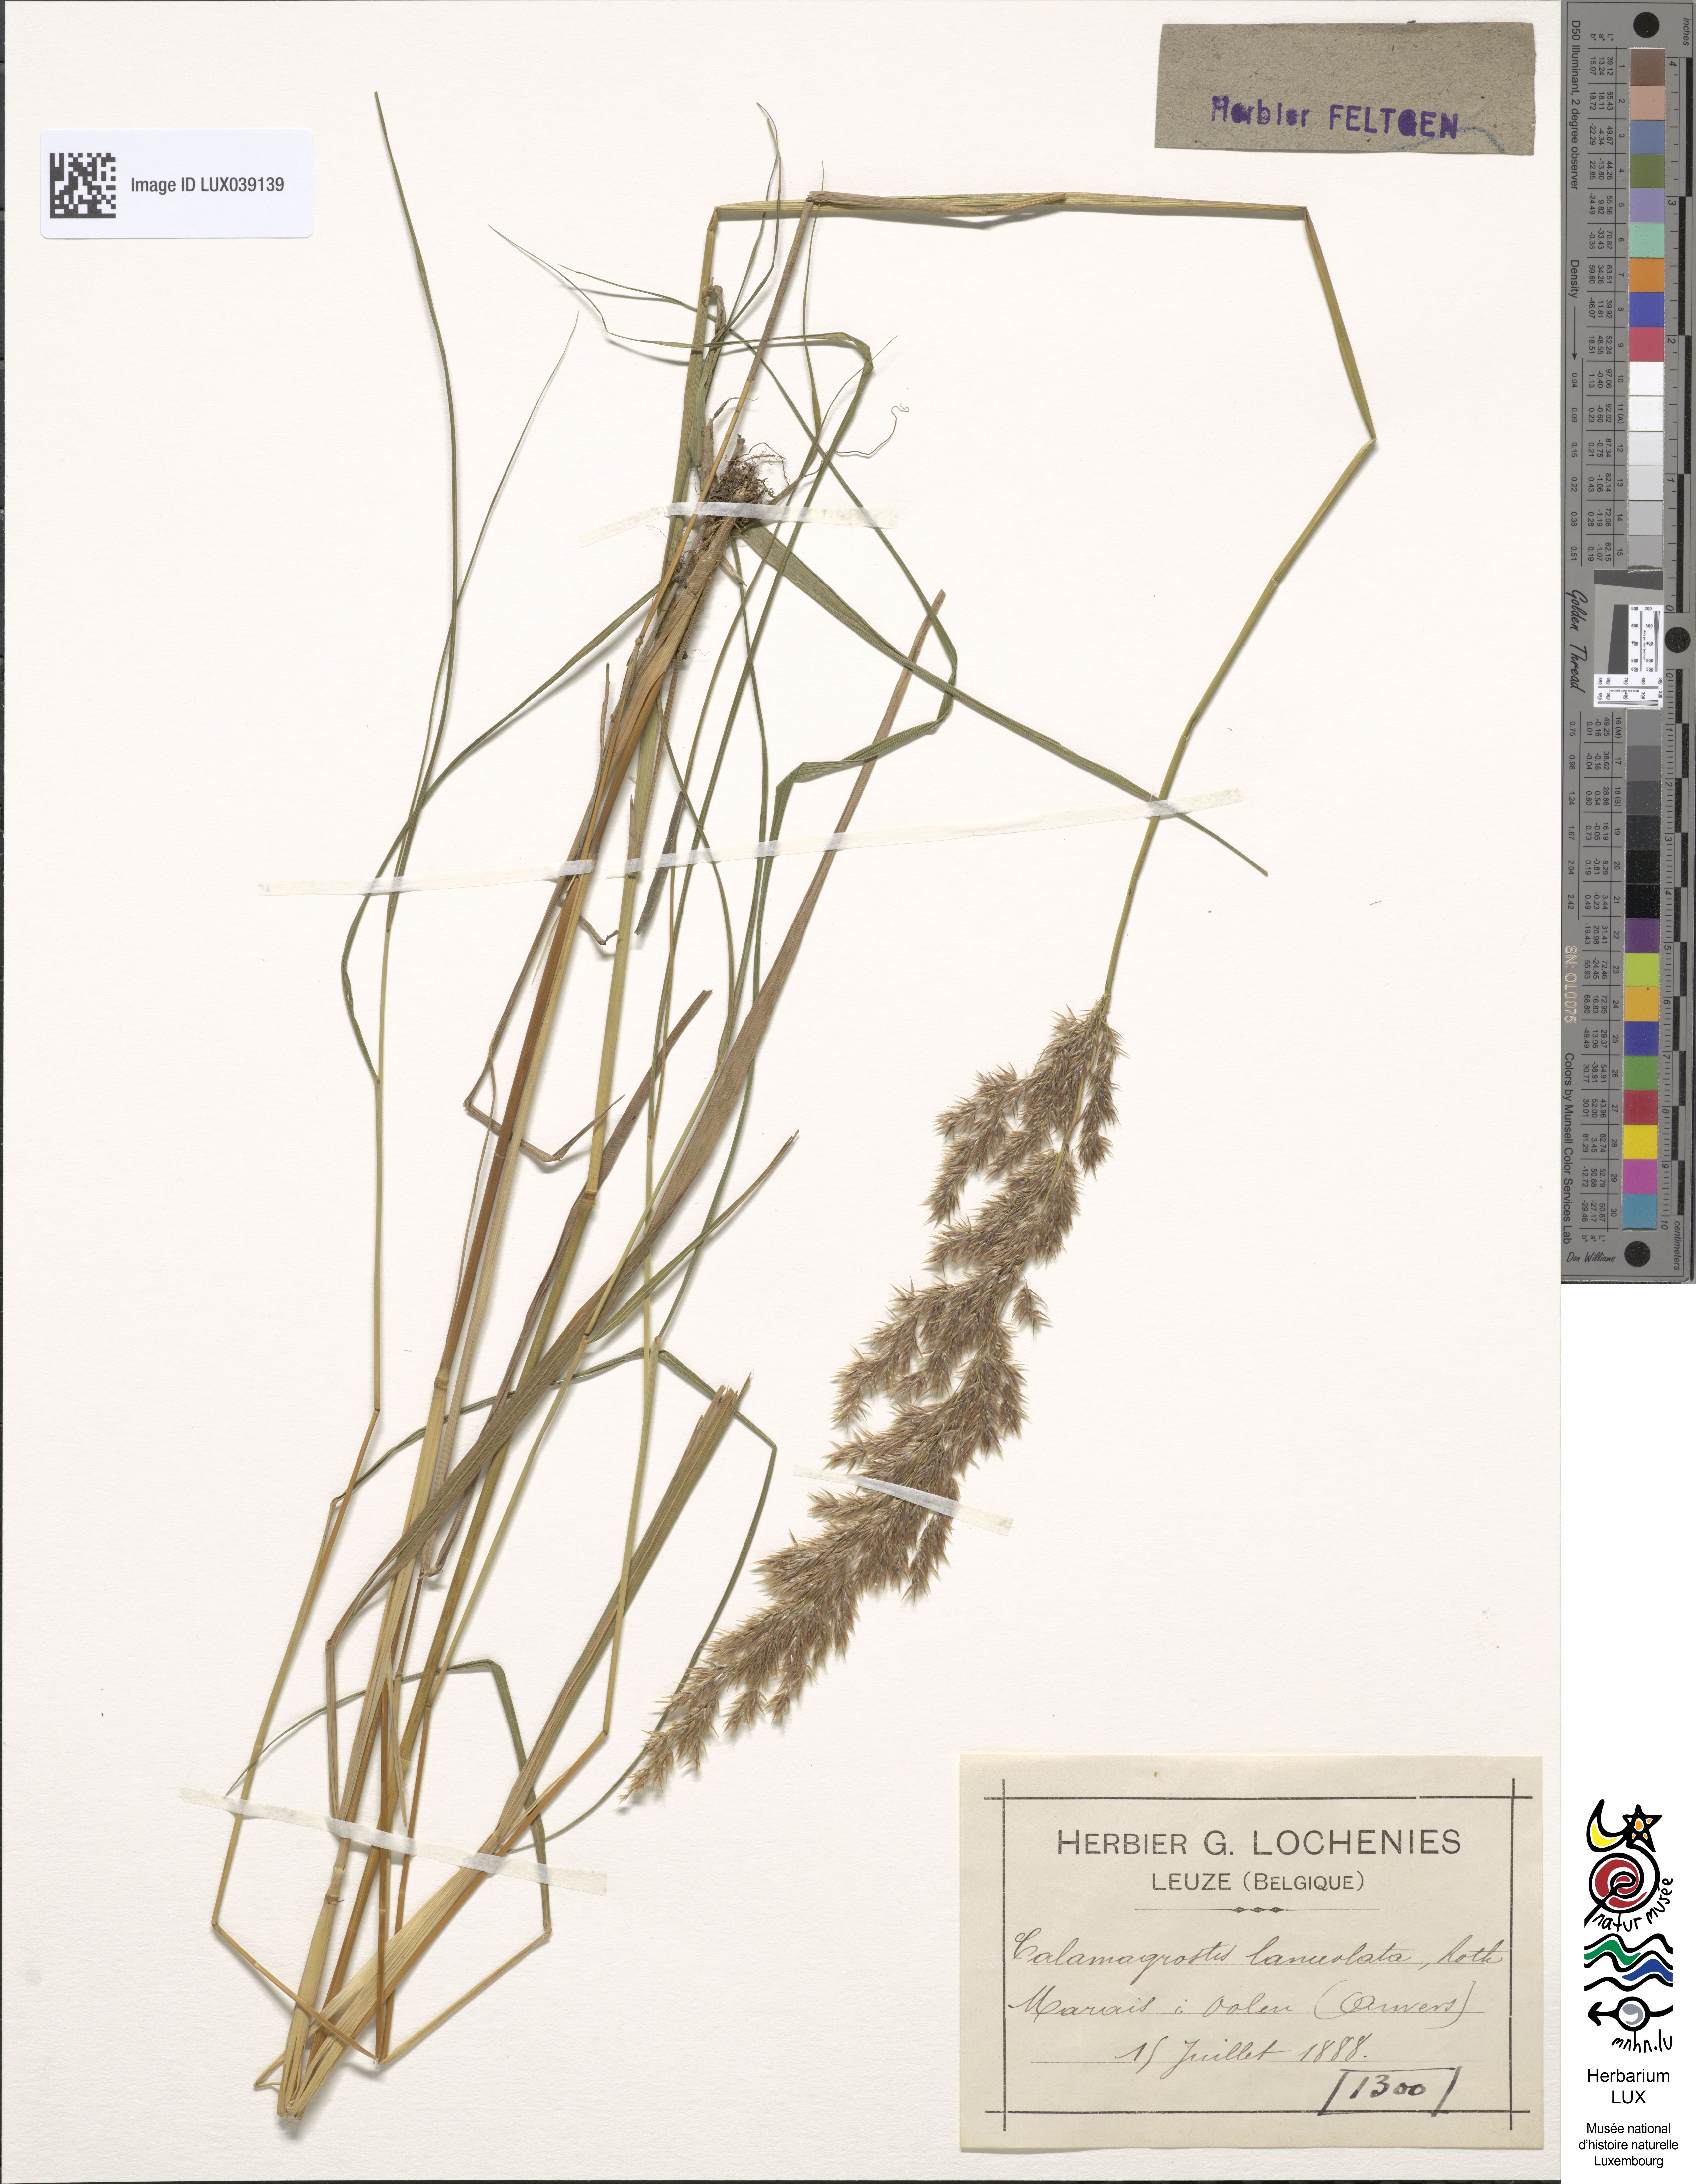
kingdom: Plantae
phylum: Tracheophyta
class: Liliopsida
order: Poales
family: Poaceae
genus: Calamagrostis
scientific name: Calamagrostis canescens
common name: Purple small-reed
